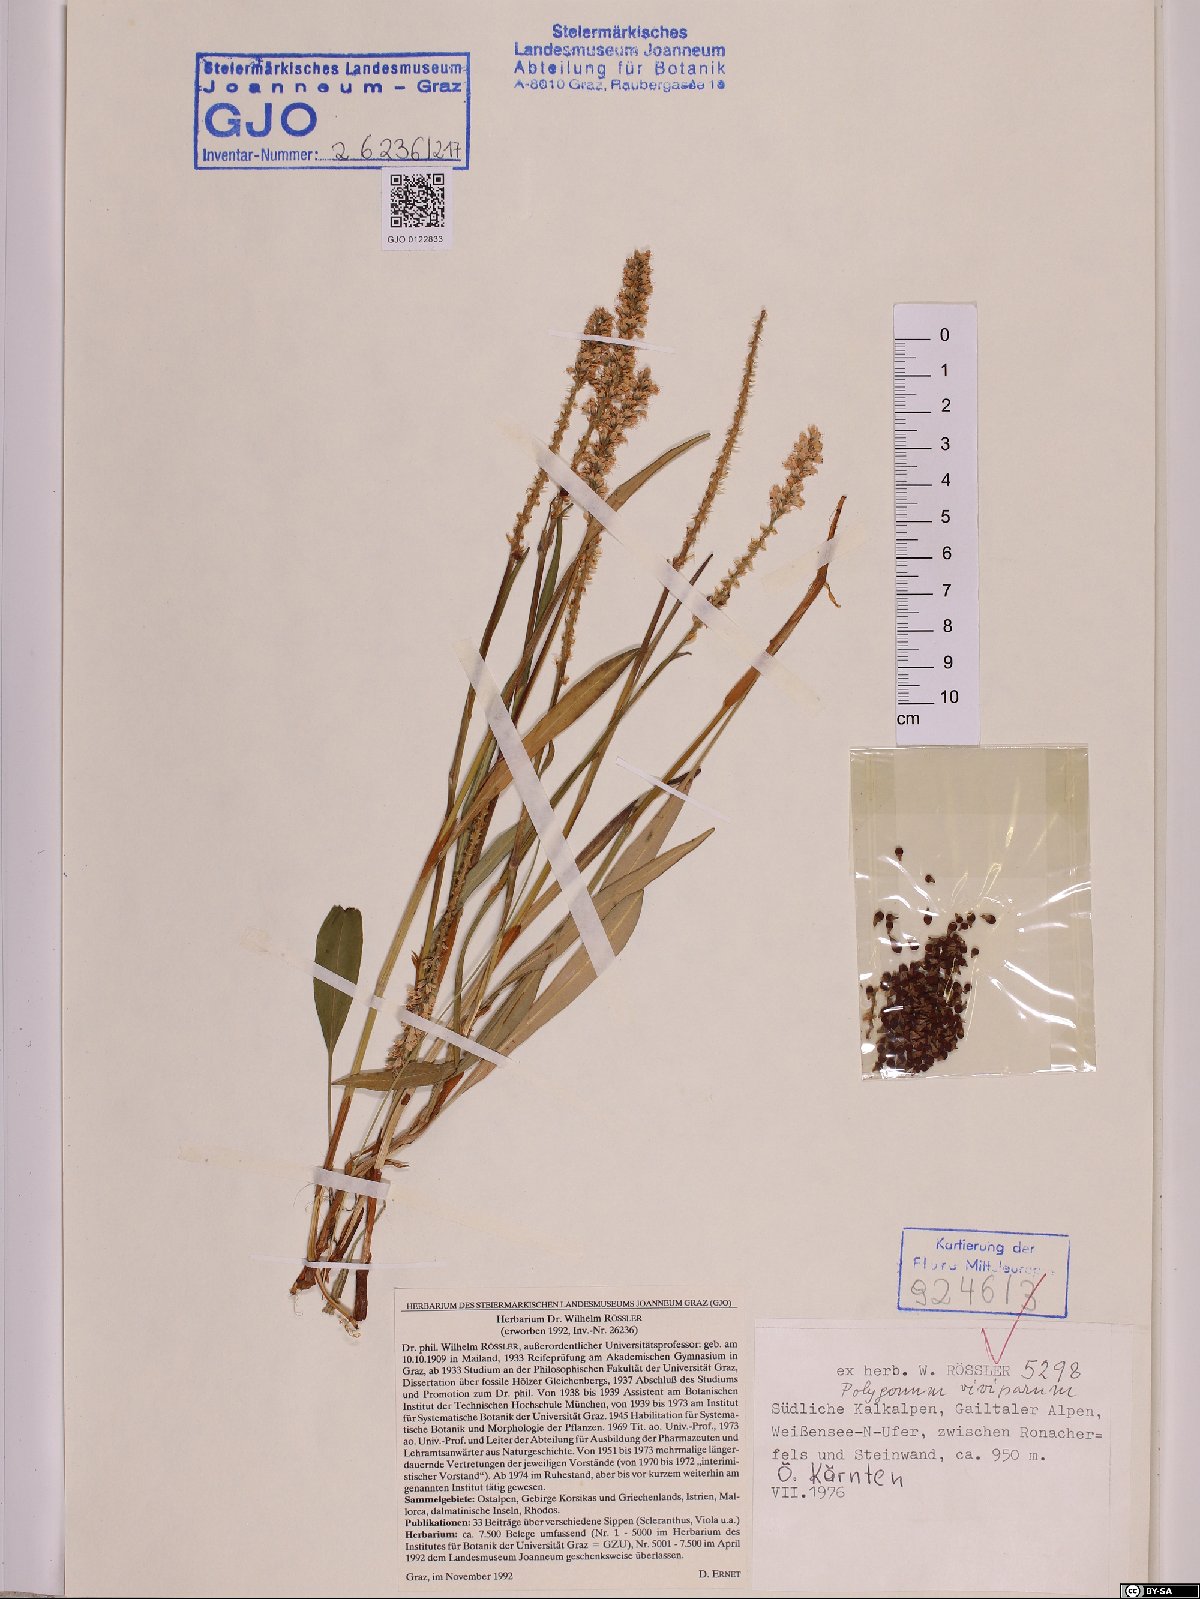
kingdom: Plantae
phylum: Tracheophyta
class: Magnoliopsida
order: Caryophyllales
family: Polygonaceae
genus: Bistorta
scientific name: Bistorta vivipara
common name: Alpine bistort
